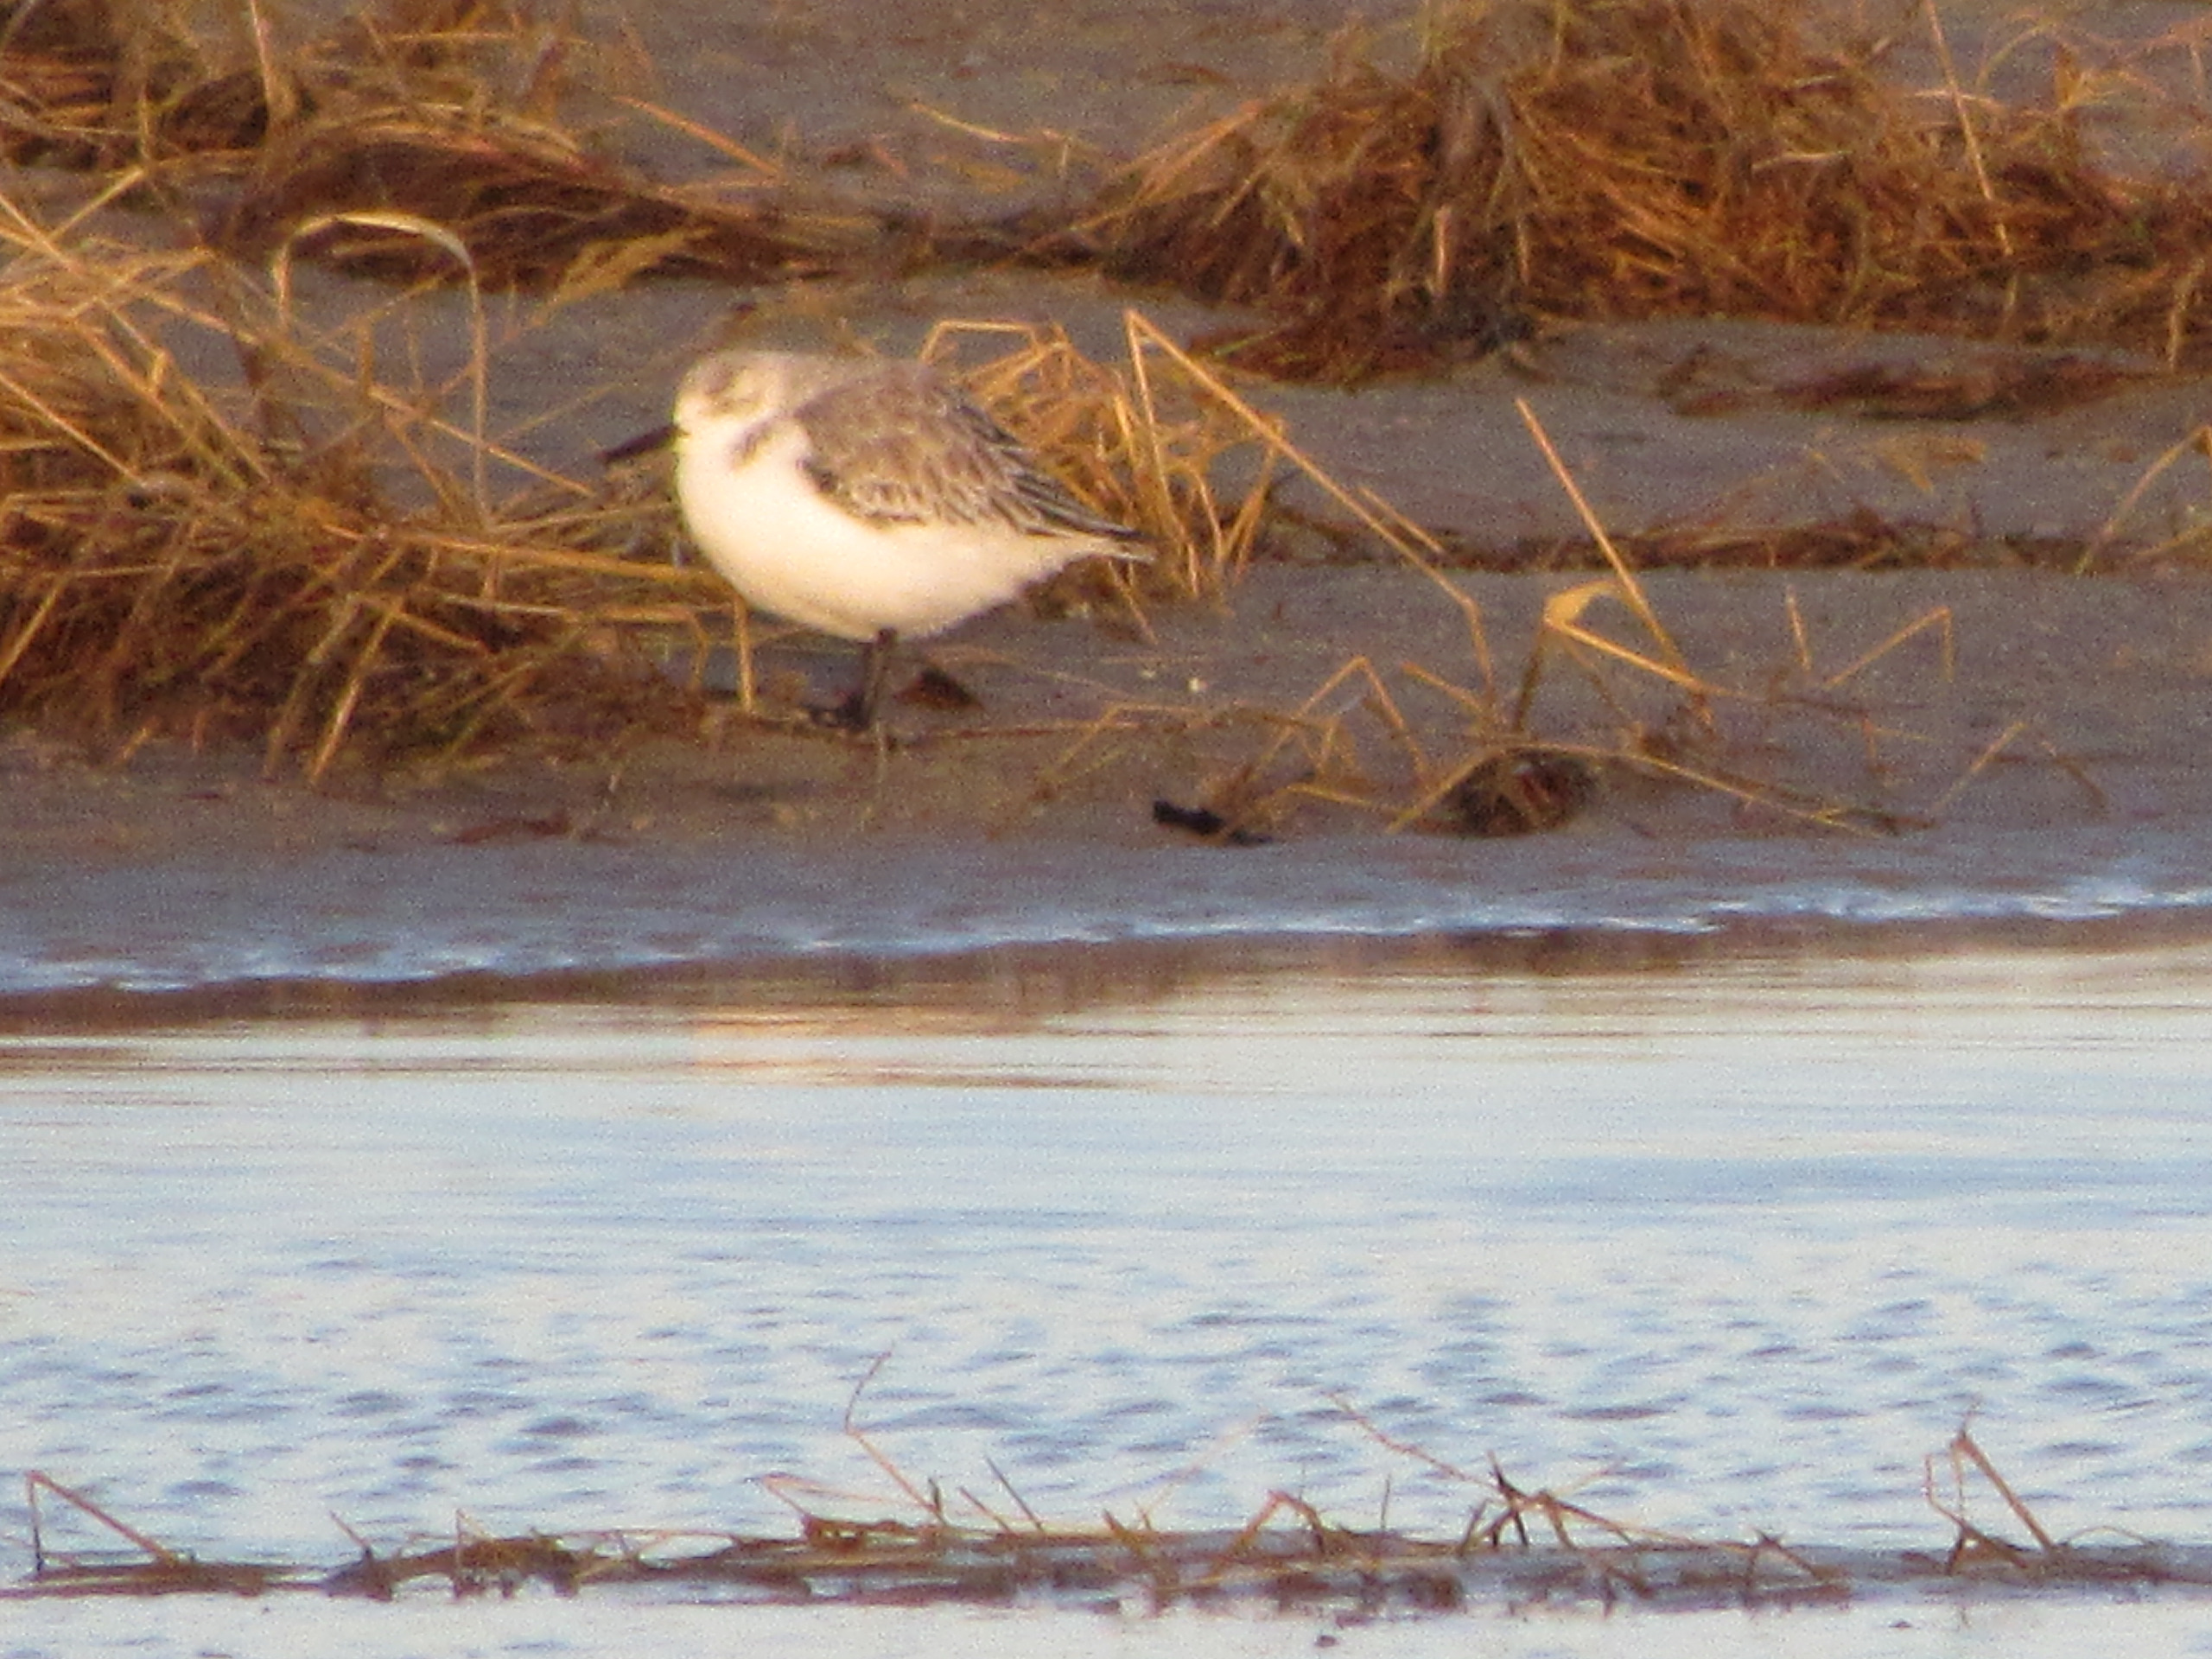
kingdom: Animalia
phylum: Chordata
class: Aves
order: Charadriiformes
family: Scolopacidae
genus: Calidris
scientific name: Calidris alba
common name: Sandløber
